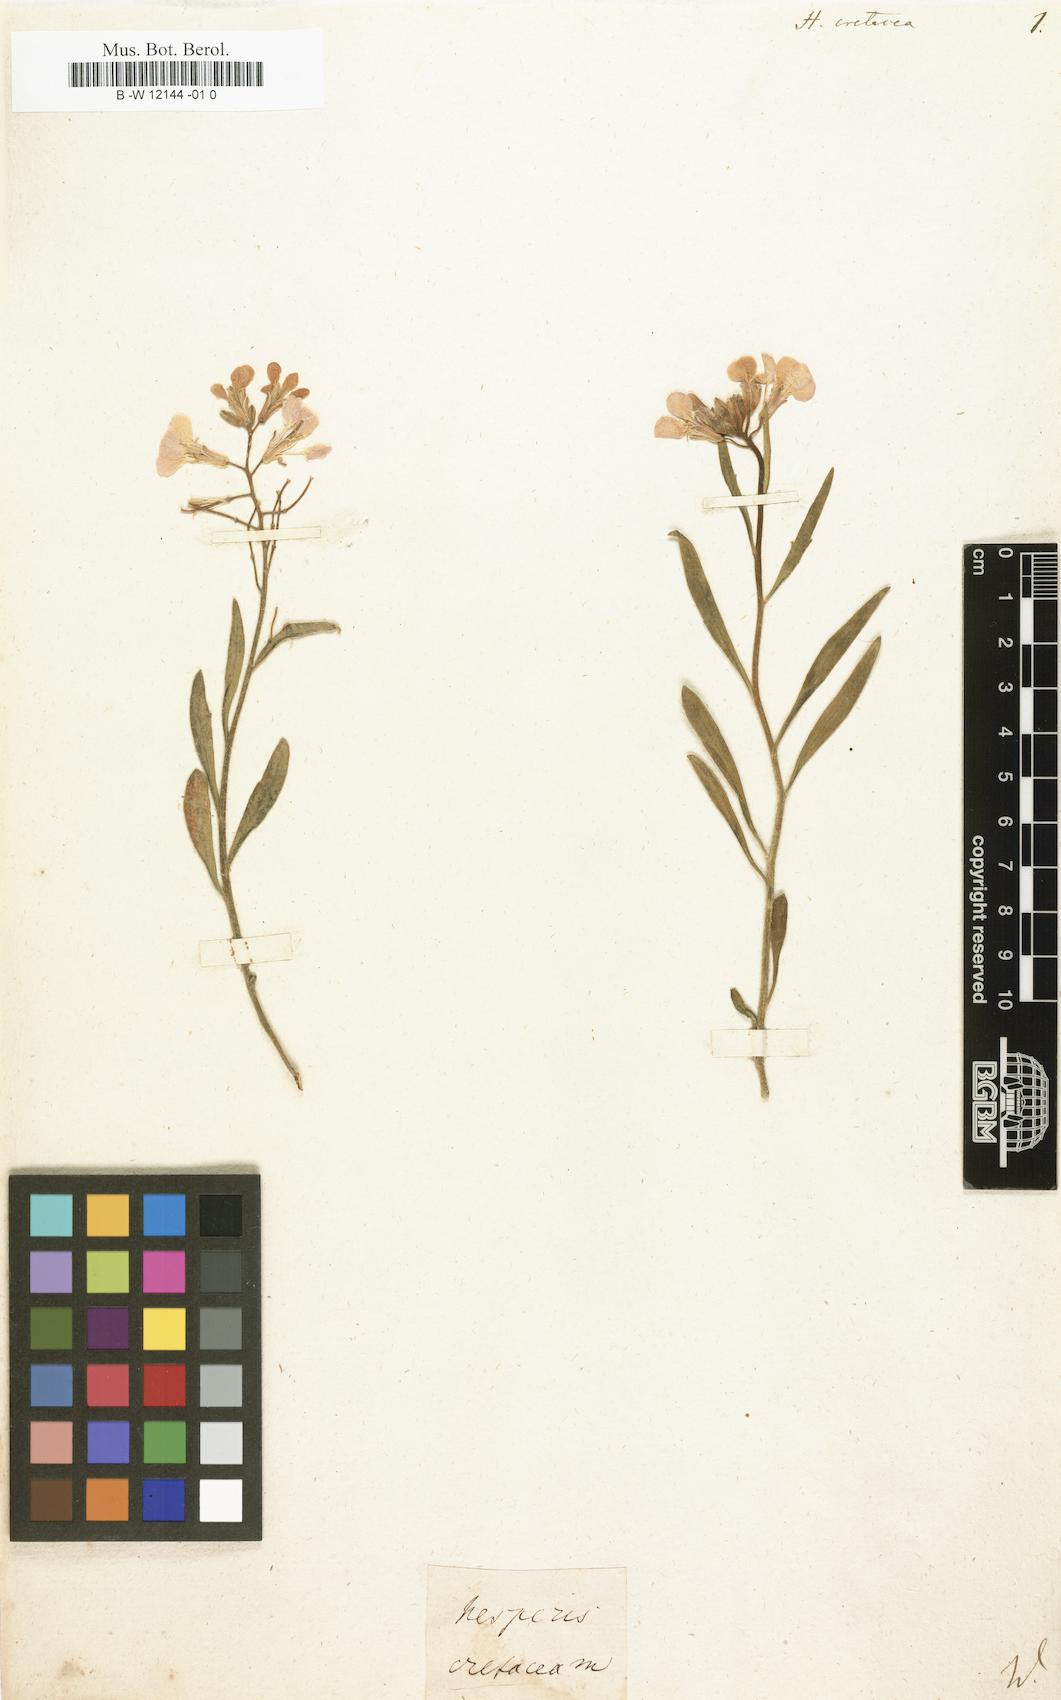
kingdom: Plantae
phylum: Tracheophyta
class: Magnoliopsida
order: Brassicales
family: Brassicaceae
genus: Clausia
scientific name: Clausia aprica
